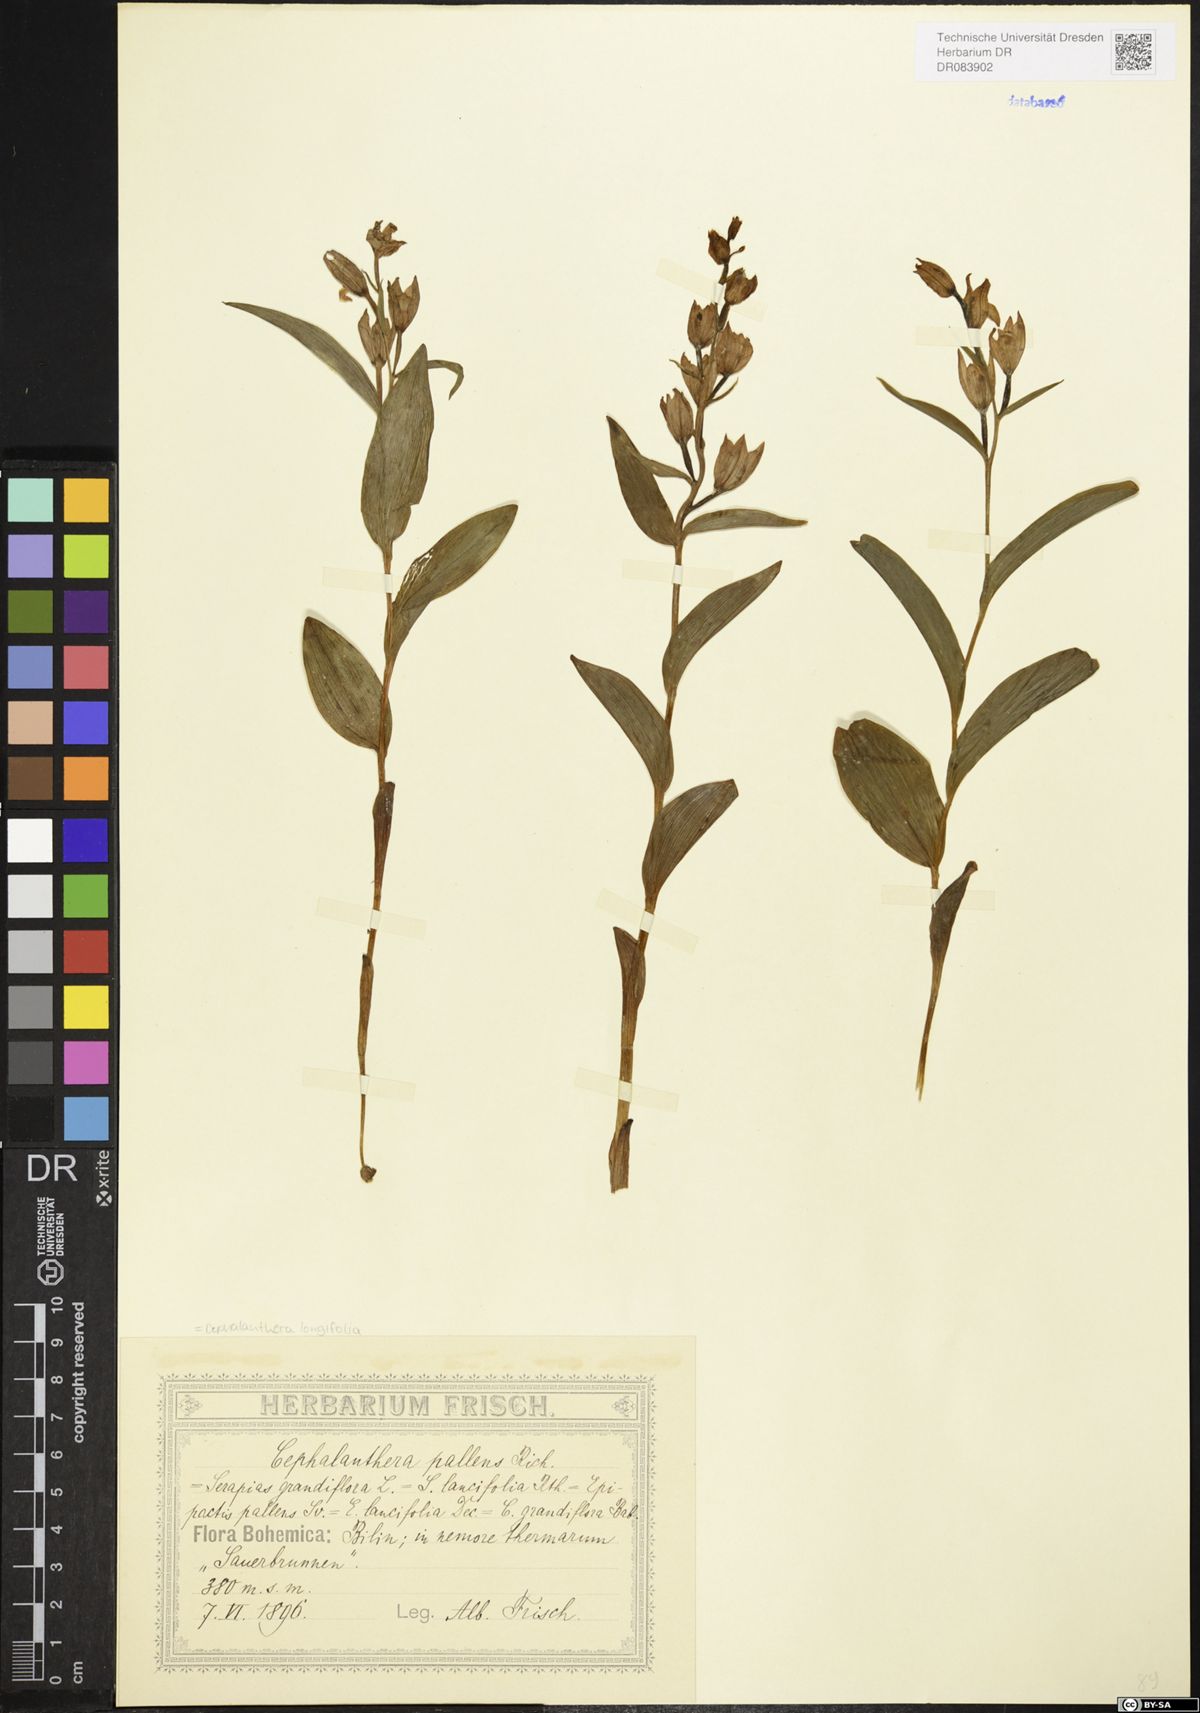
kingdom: Plantae
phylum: Tracheophyta
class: Liliopsida
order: Asparagales
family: Orchidaceae
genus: Cephalanthera
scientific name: Cephalanthera longifolia
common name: Narrow-leaved helleborine
